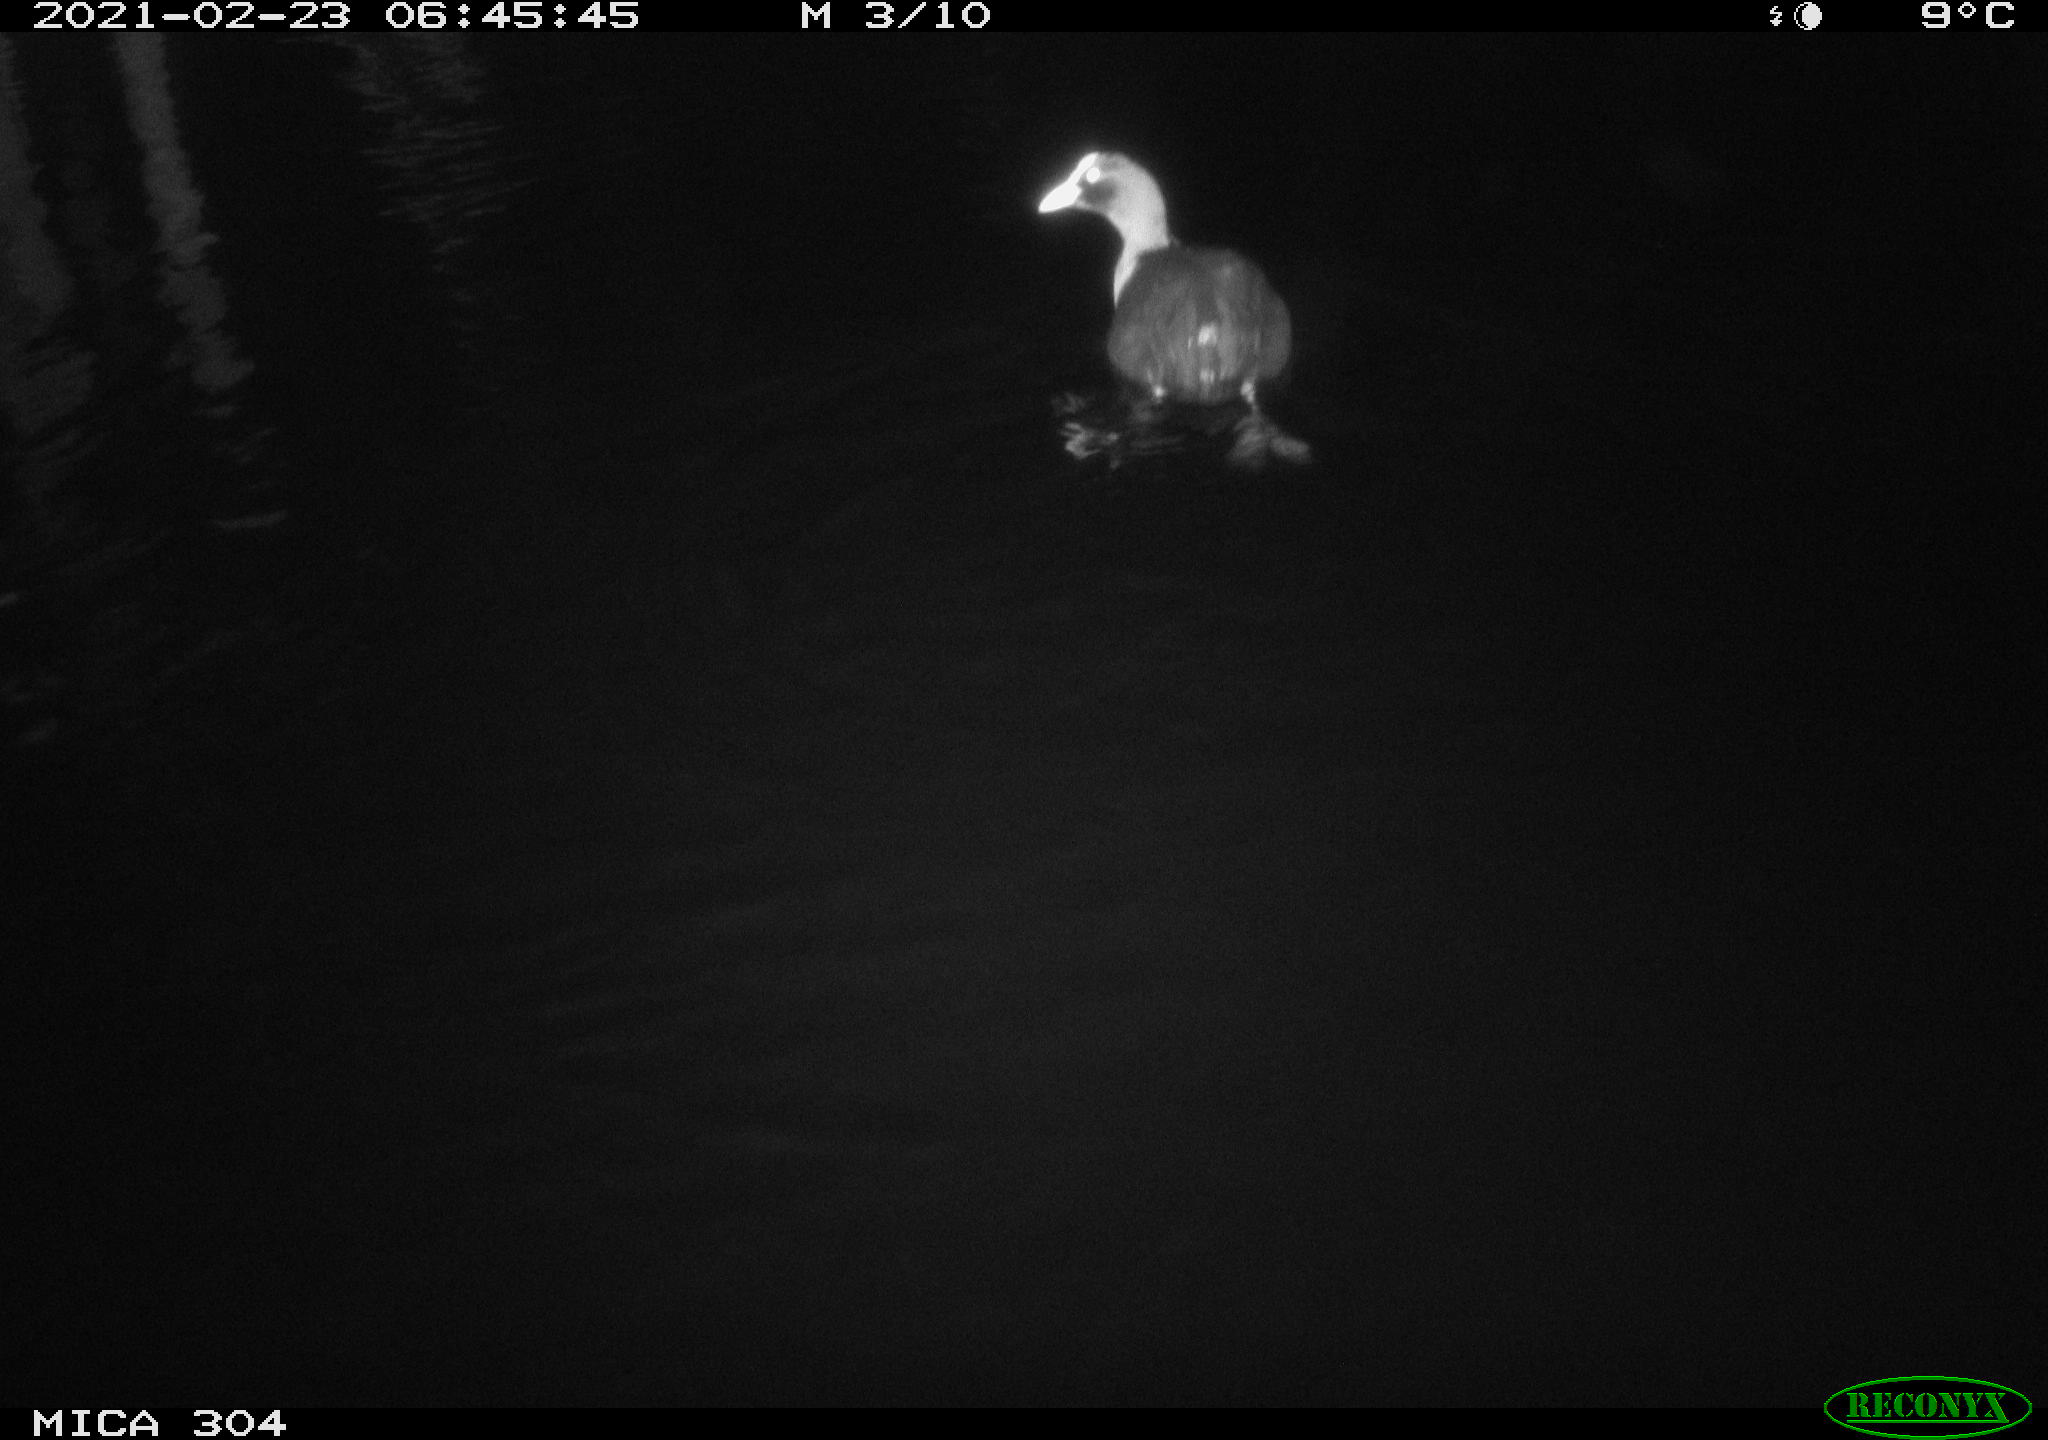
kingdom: Animalia
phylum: Chordata
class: Aves
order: Gruiformes
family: Rallidae
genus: Fulica
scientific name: Fulica atra
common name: Eurasian coot
